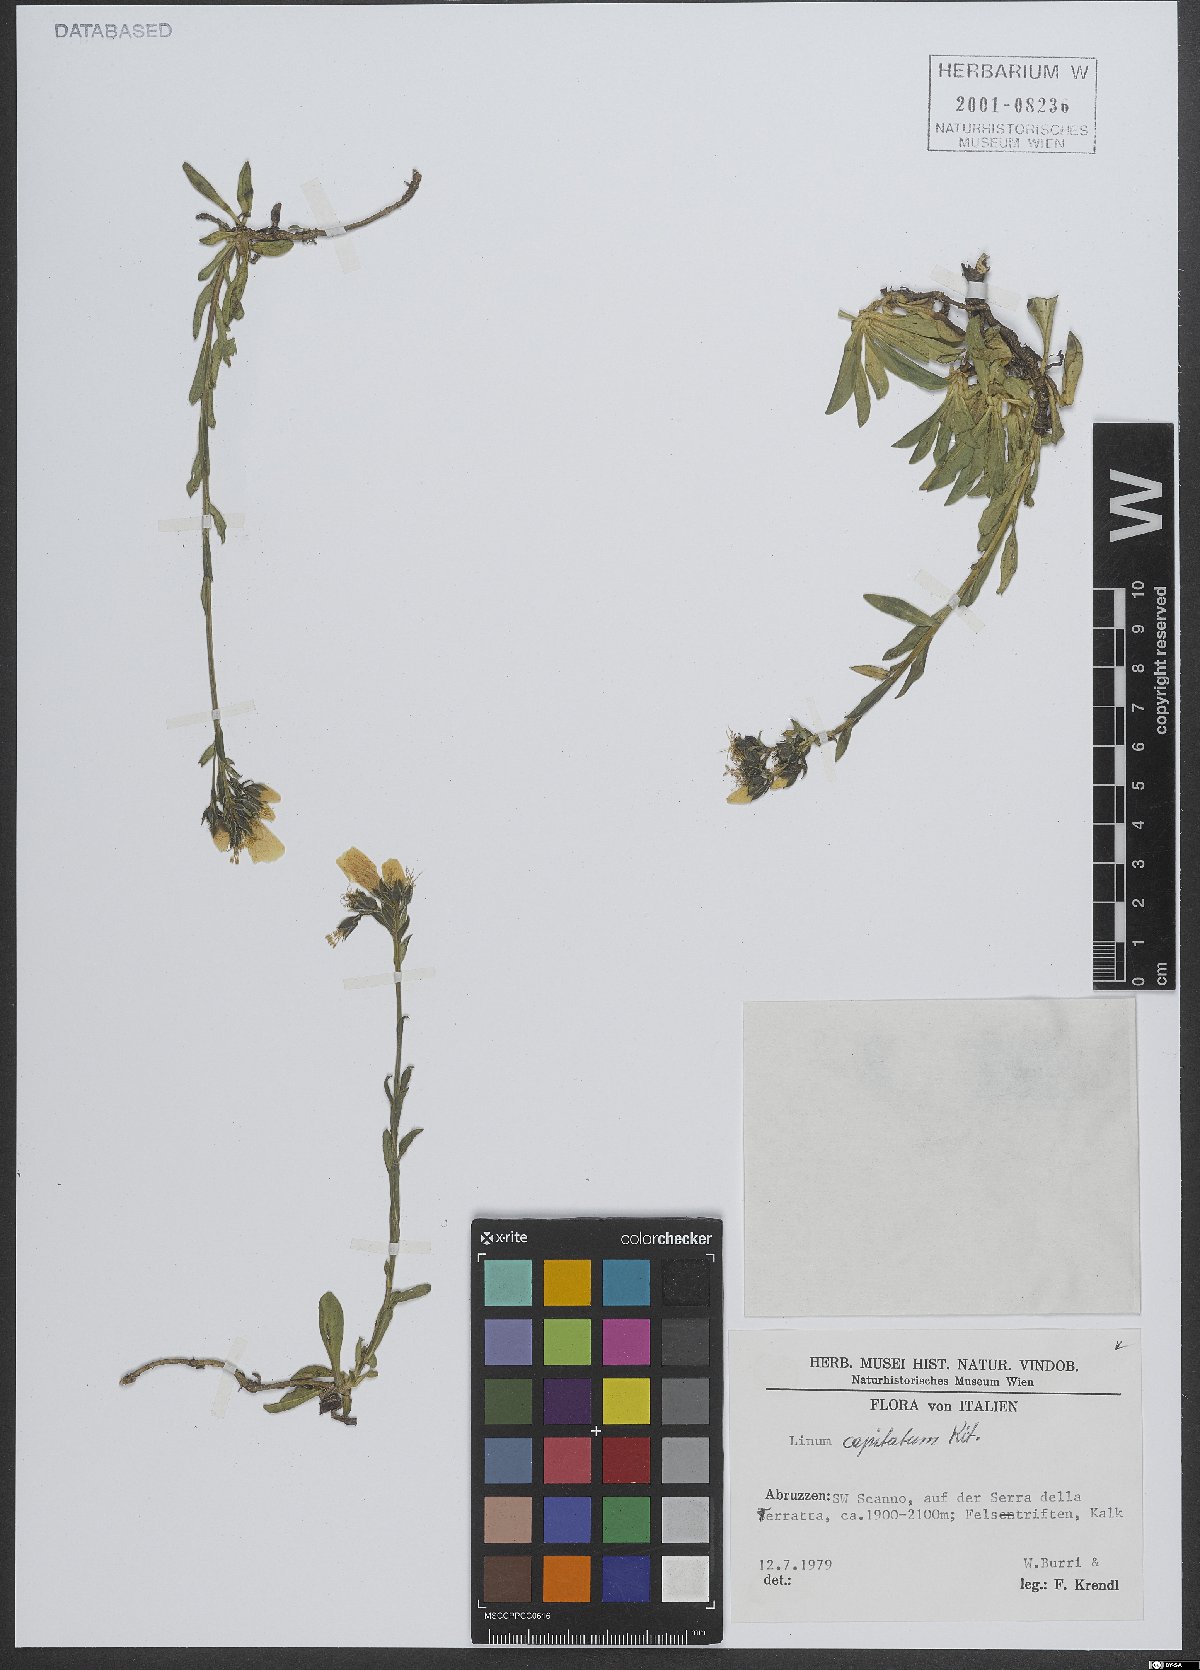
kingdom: Plantae
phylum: Tracheophyta
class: Magnoliopsida
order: Malpighiales
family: Linaceae
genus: Linum
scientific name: Linum capitatum
